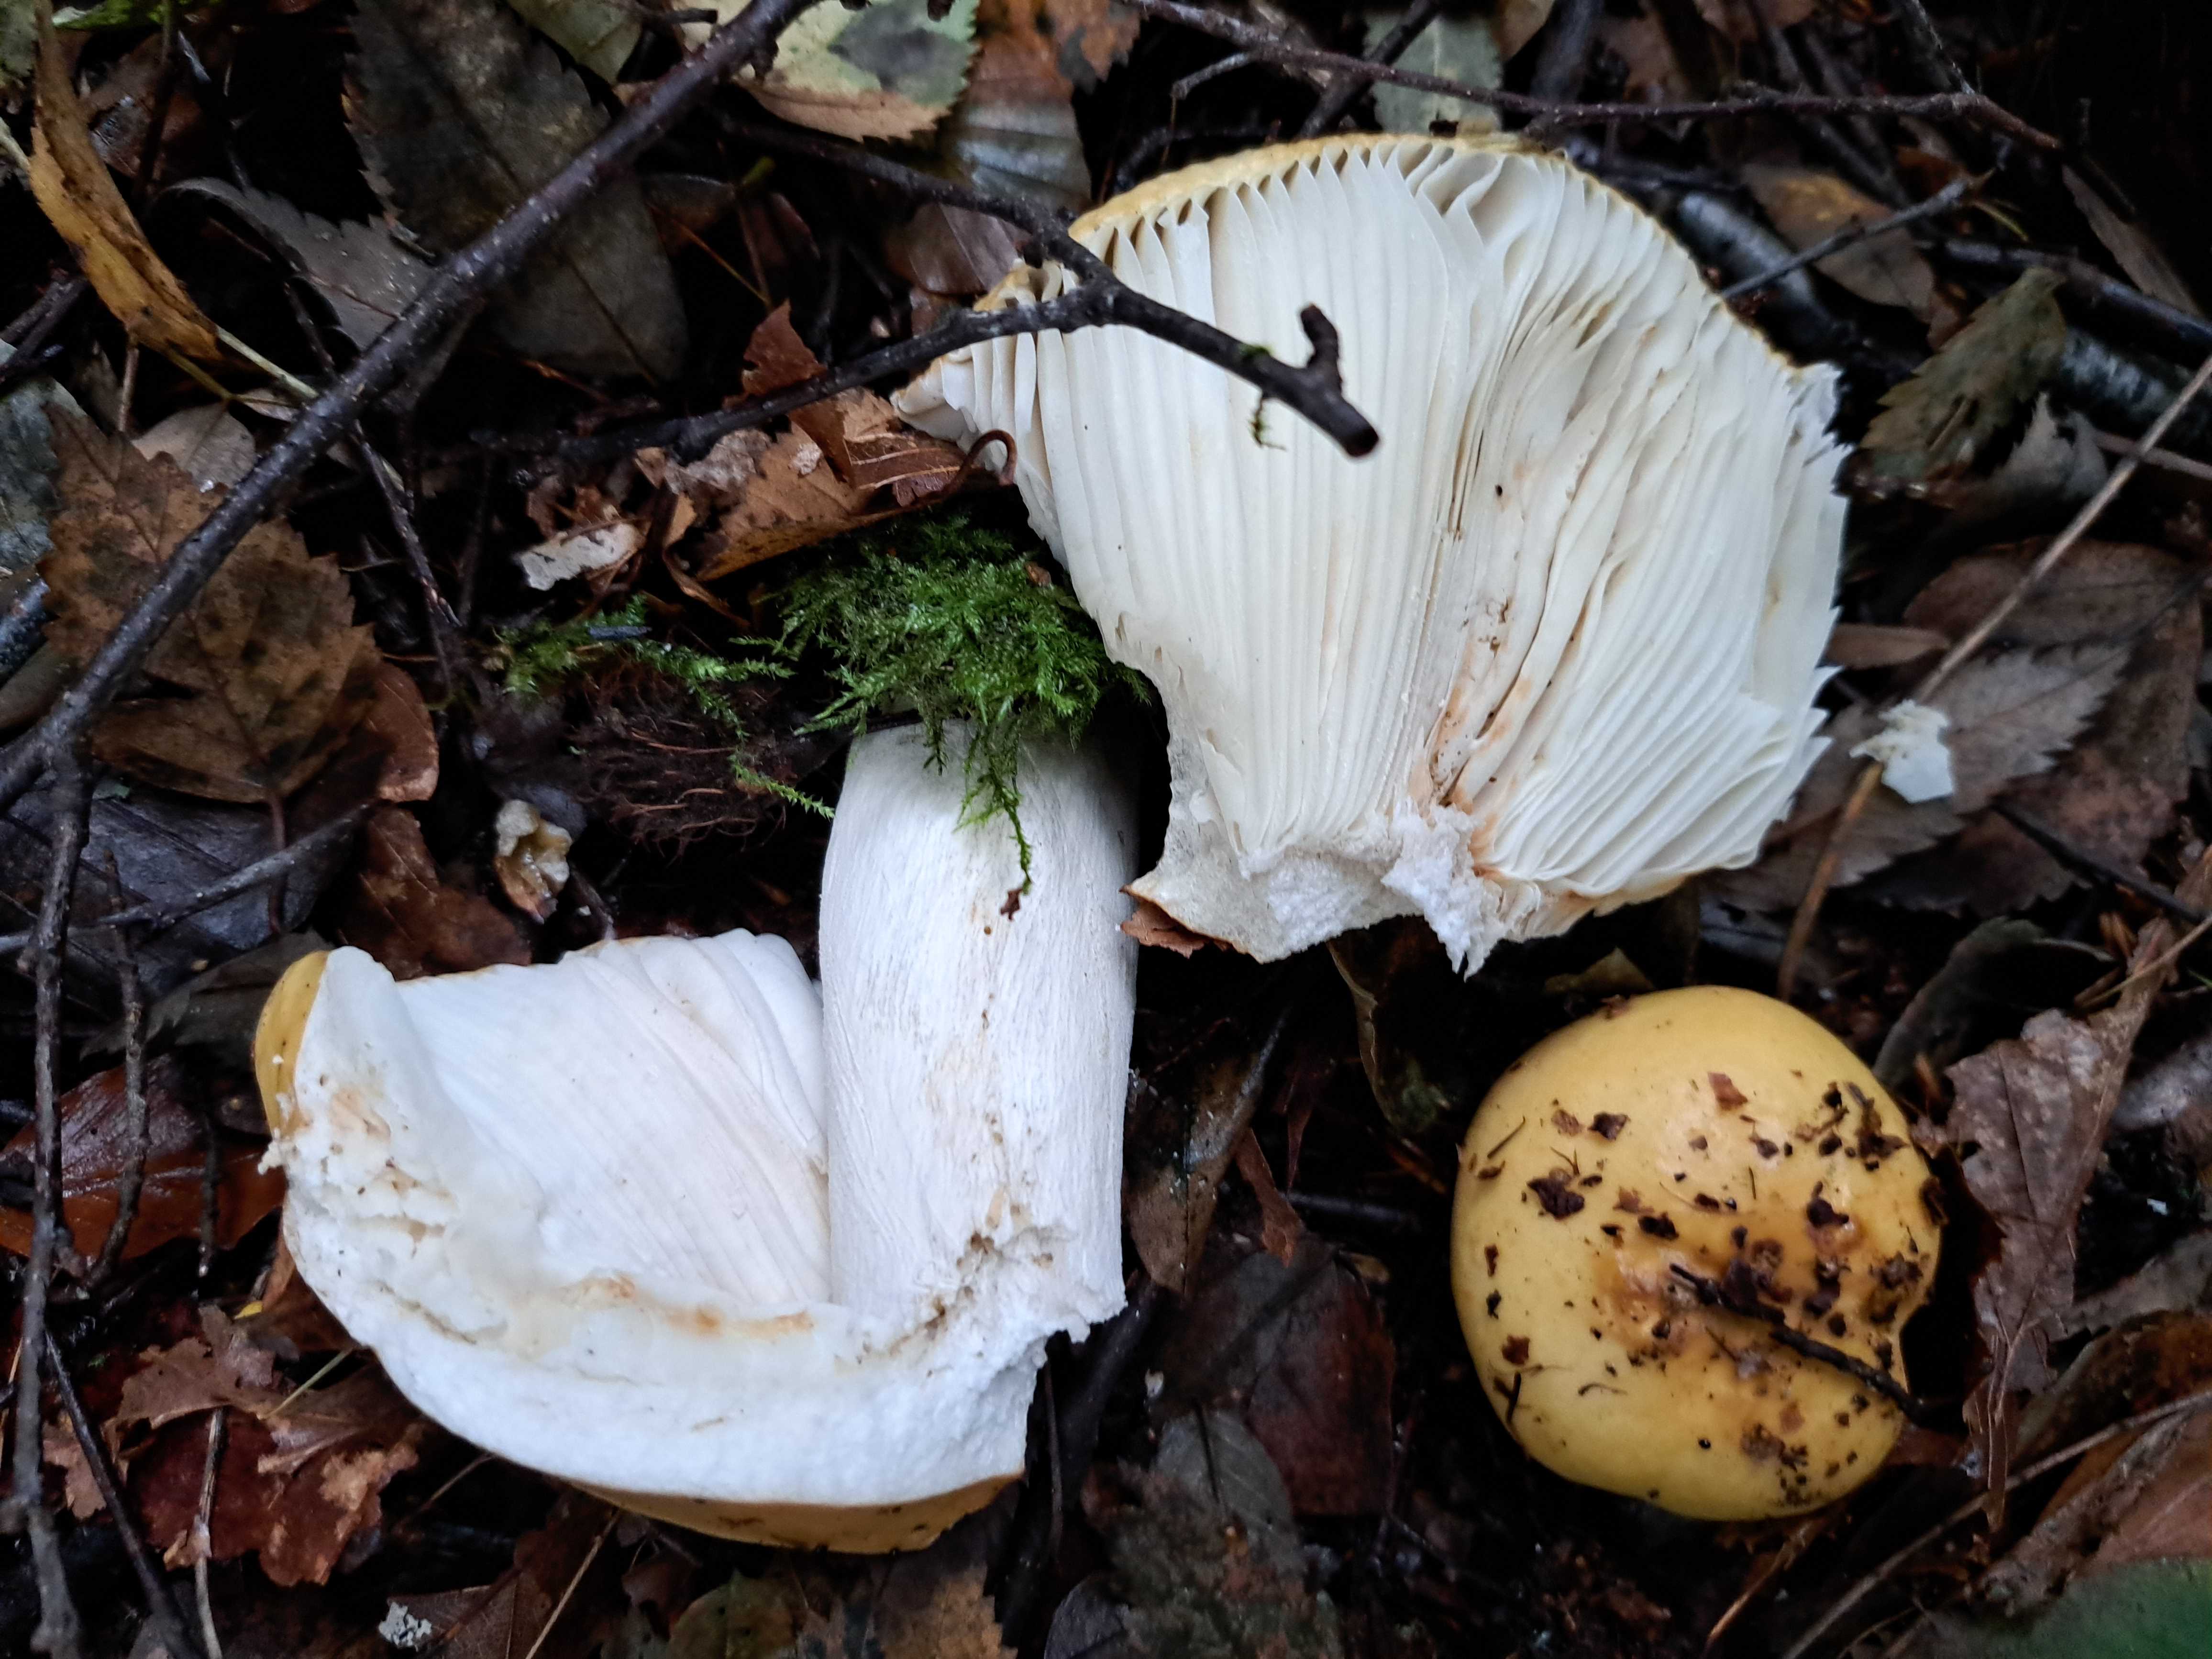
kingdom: Fungi
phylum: Basidiomycota
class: Agaricomycetes
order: Russulales
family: Russulaceae
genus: Russula
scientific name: Russula ochroleuca
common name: okkergul skørhat
